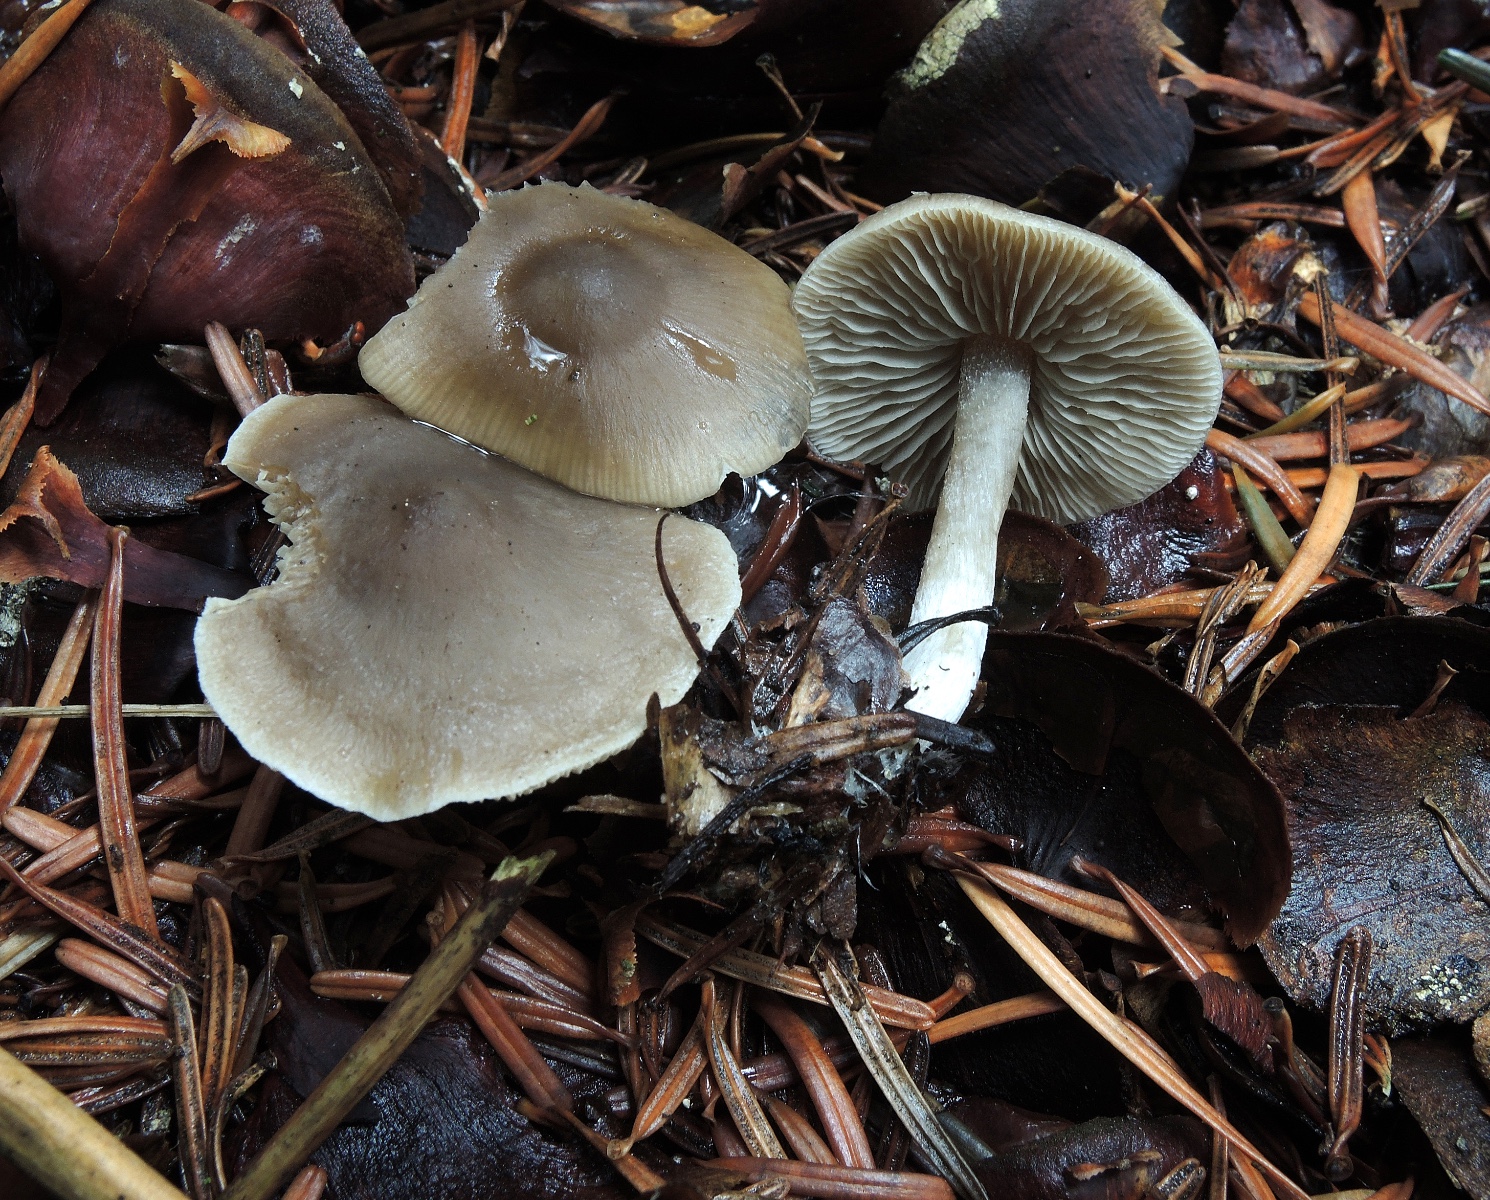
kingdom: Fungi
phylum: Basidiomycota
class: Agaricomycetes
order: Agaricales
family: Lyophyllaceae
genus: Myochromella
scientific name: Myochromella boudieri
